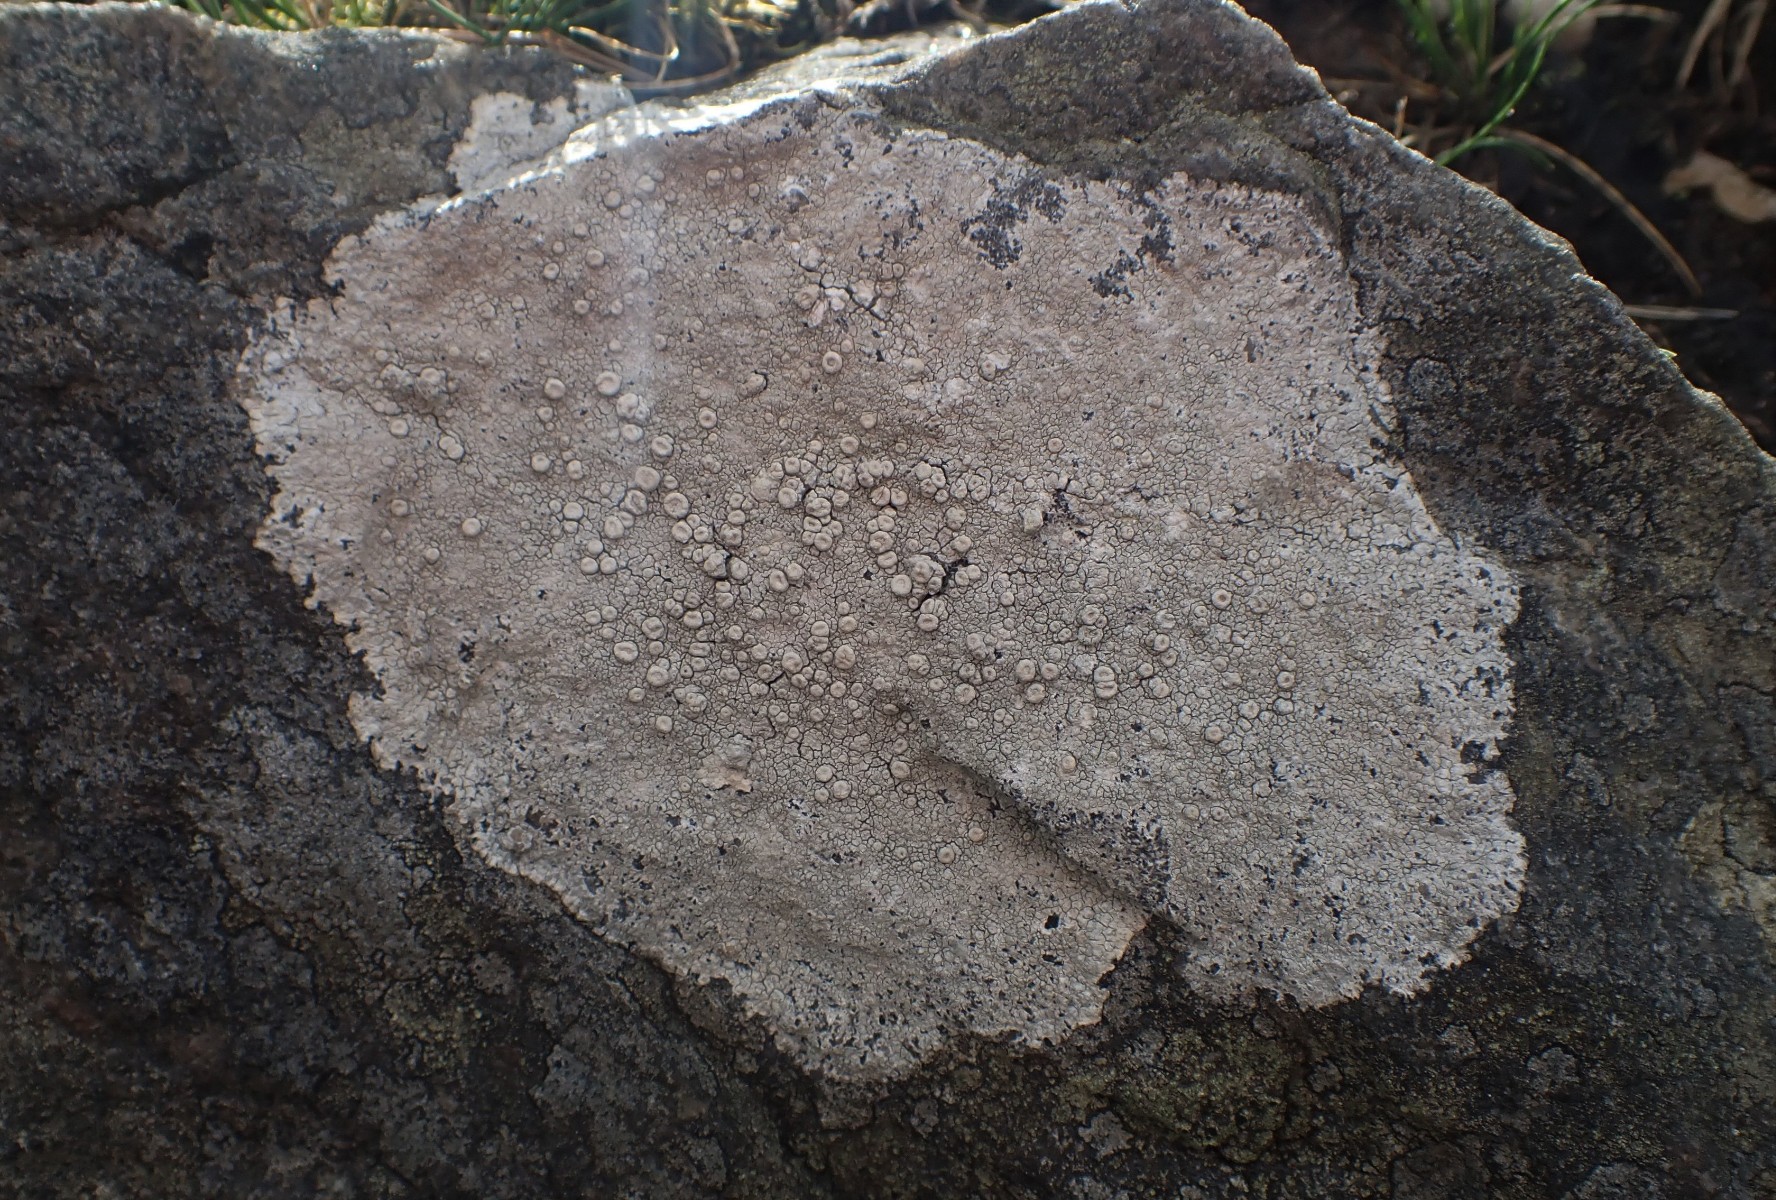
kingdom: Fungi
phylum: Ascomycota
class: Lecanoromycetes
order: Pertusariales
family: Ochrolechiaceae
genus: Ochrolechia
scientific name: Ochrolechia parella
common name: almindelig blegskivelav
